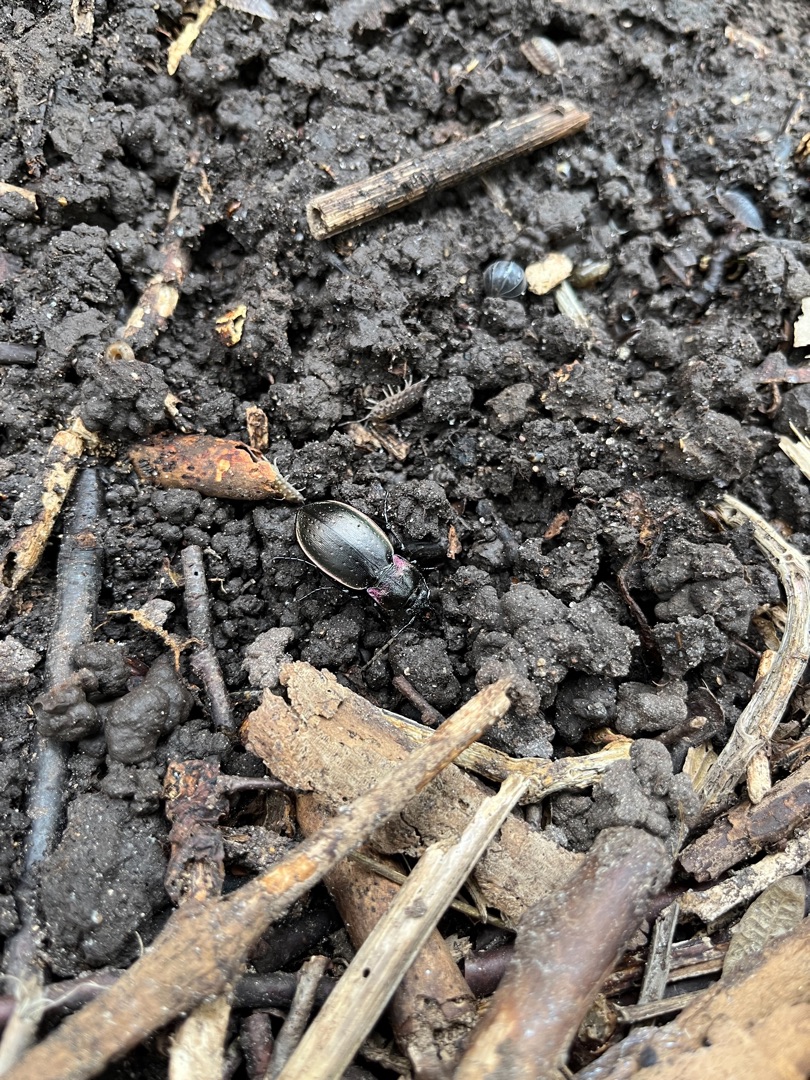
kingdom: Animalia
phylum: Arthropoda
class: Insecta
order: Coleoptera
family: Carabidae
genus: Carabus
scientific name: Carabus nemoralis
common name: Kratløber
